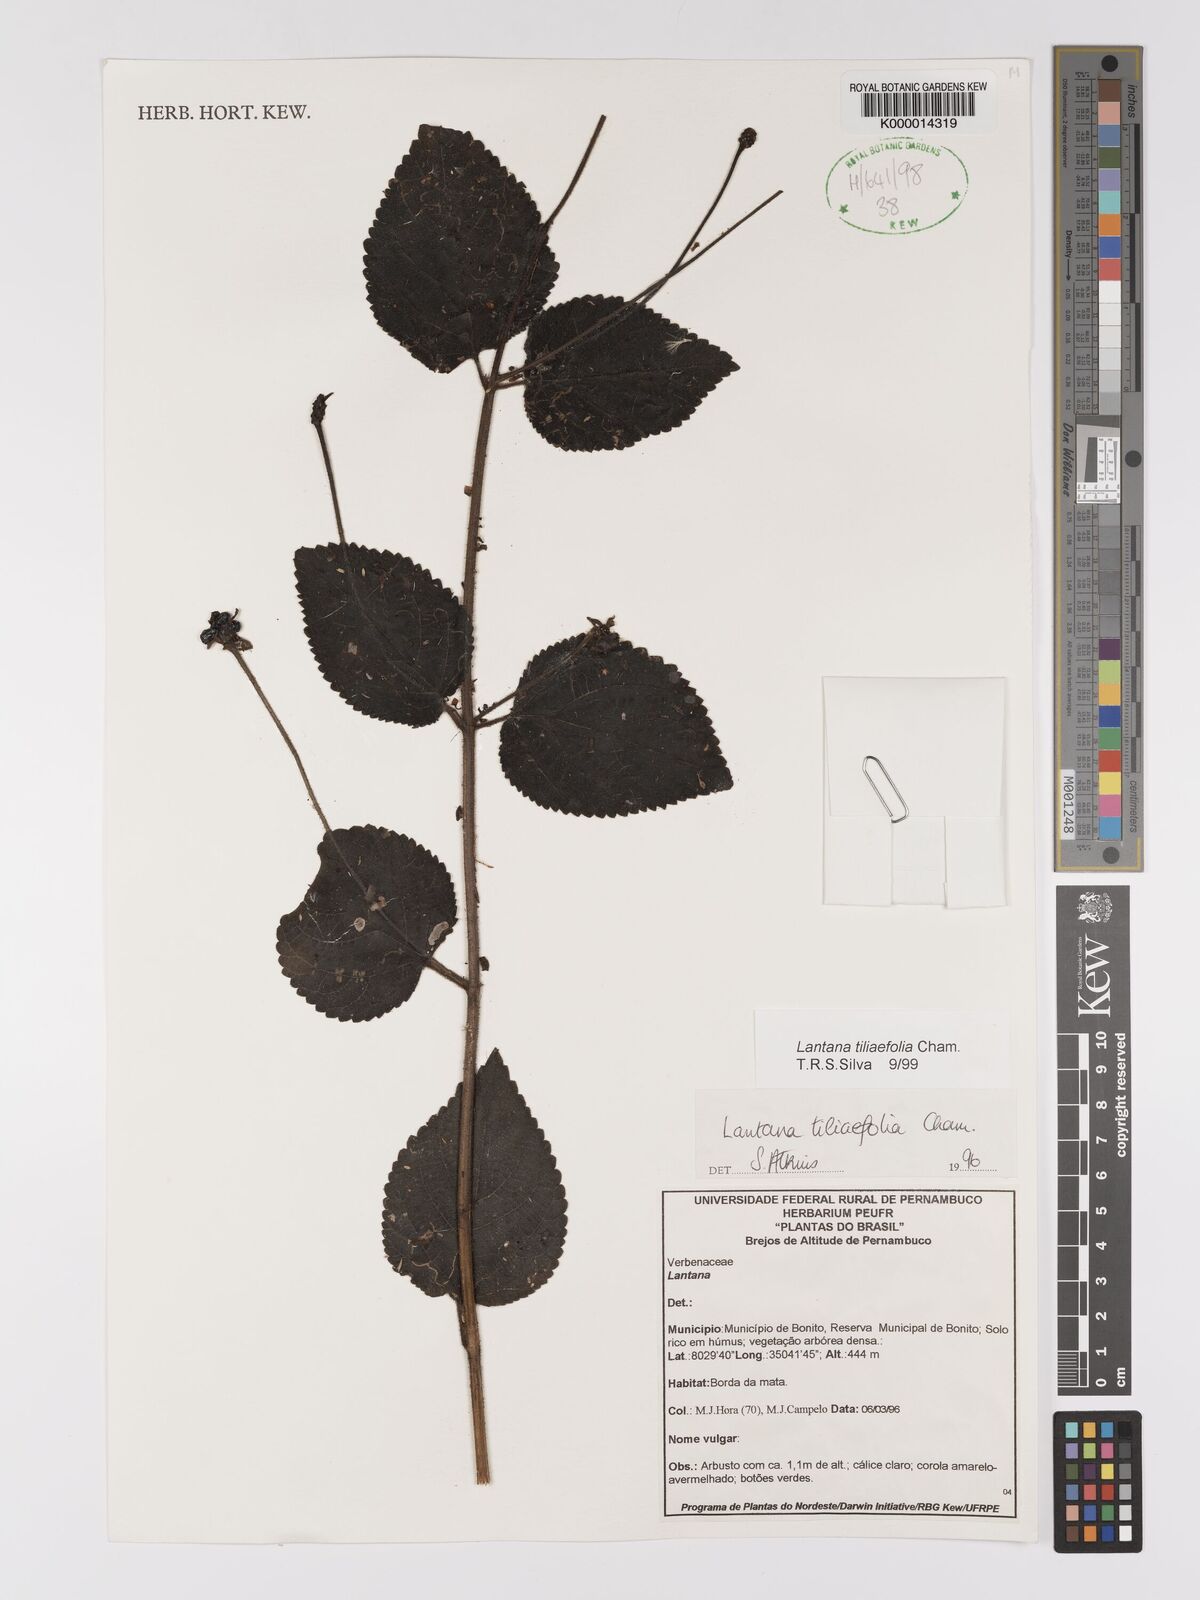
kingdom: Plantae
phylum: Tracheophyta
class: Magnoliopsida
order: Lamiales
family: Verbenaceae
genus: Lantana
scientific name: Lantana
